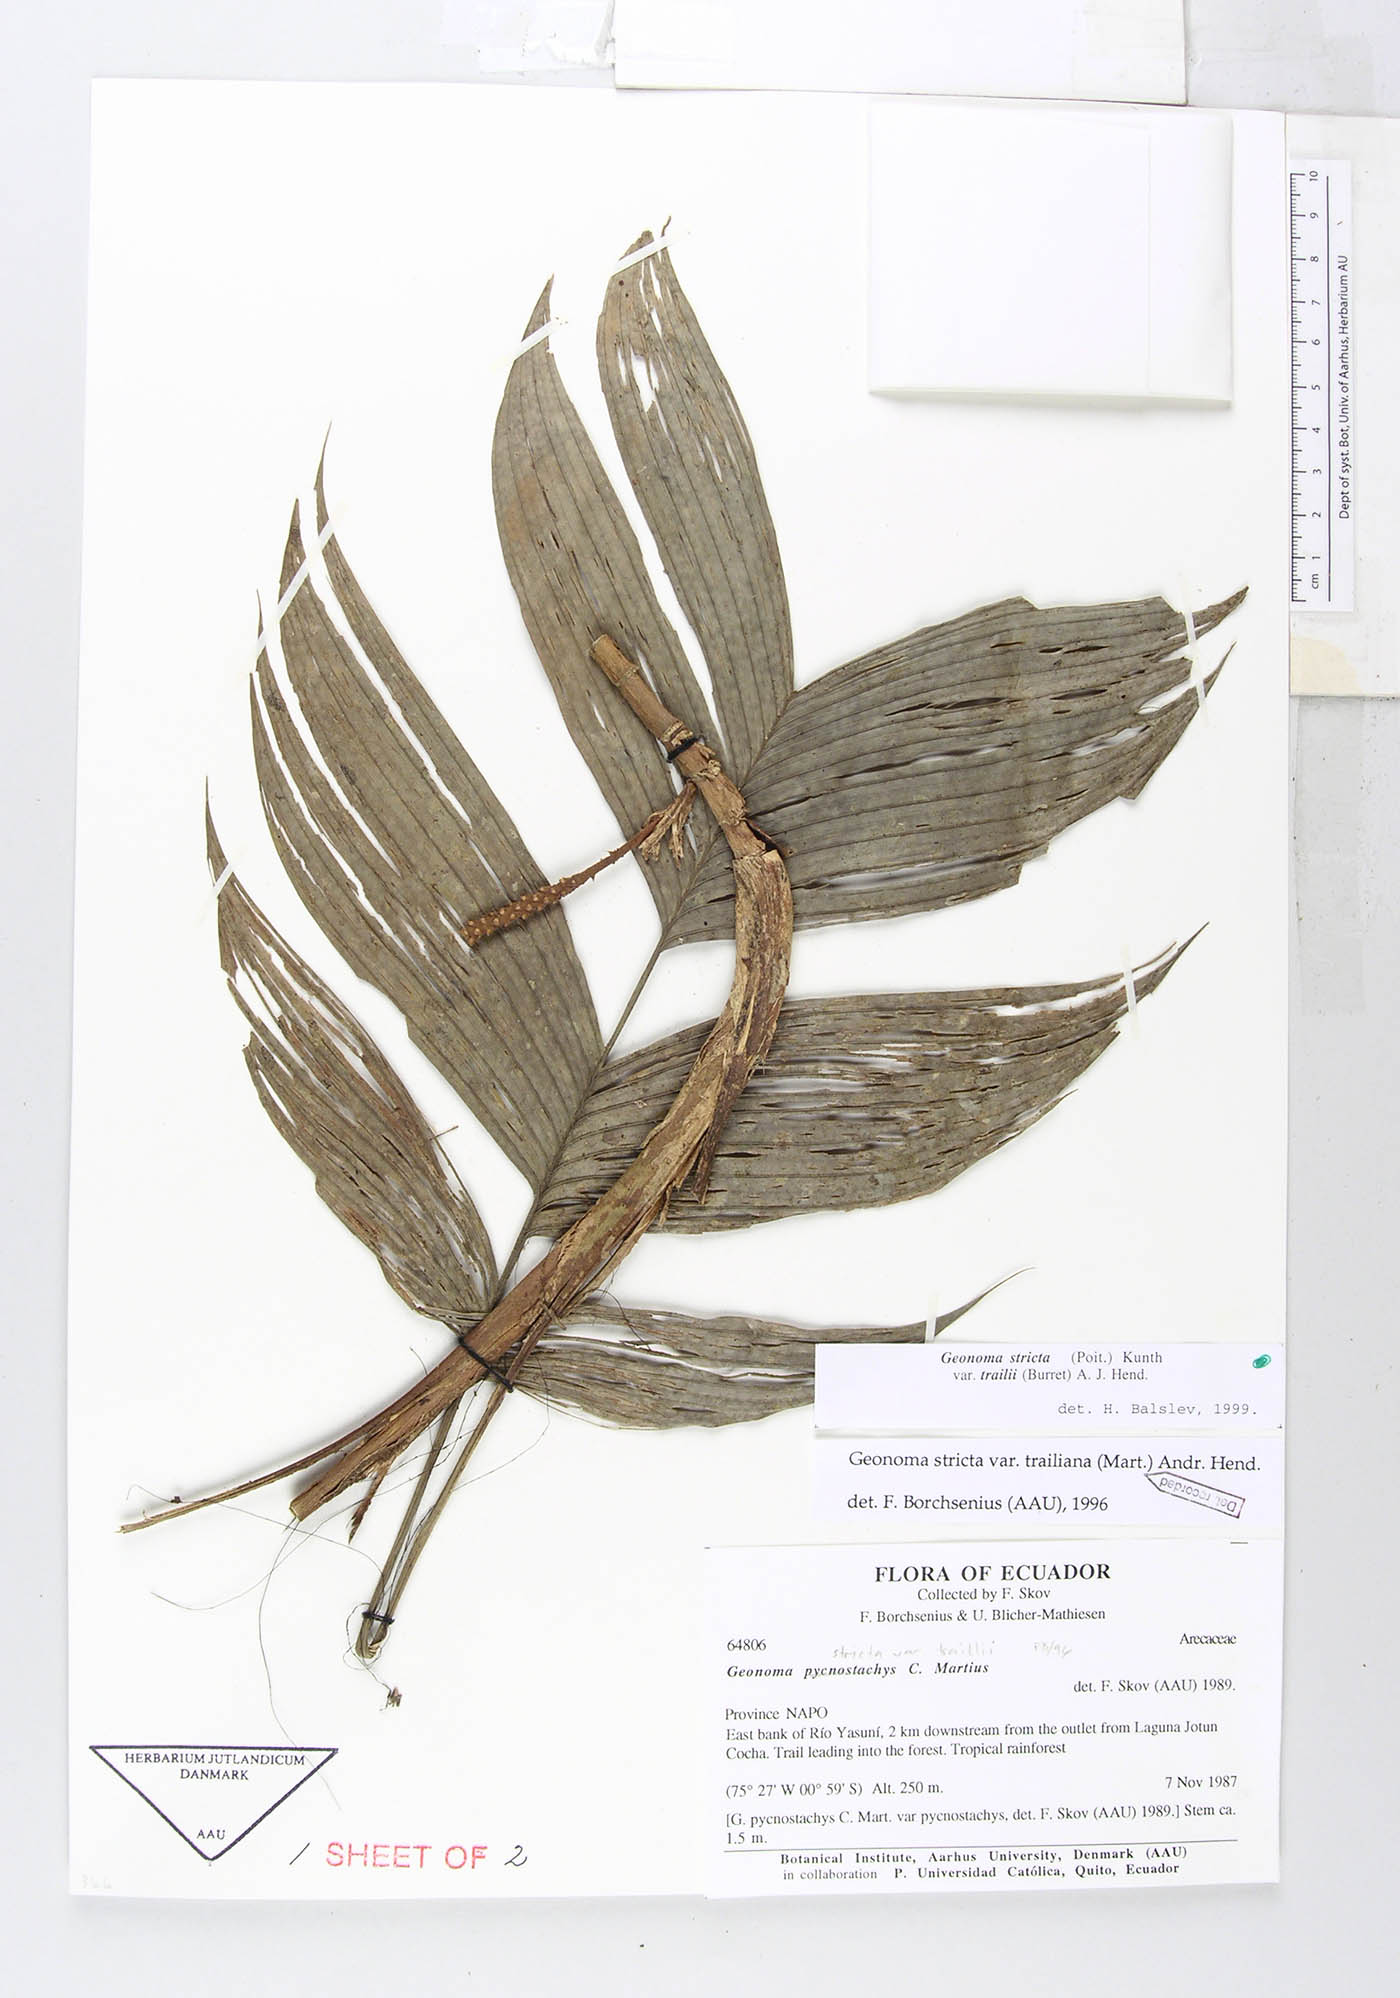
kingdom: Plantae
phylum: Tracheophyta
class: Liliopsida
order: Arecales
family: Arecaceae
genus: Geonoma
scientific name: Geonoma stricta
